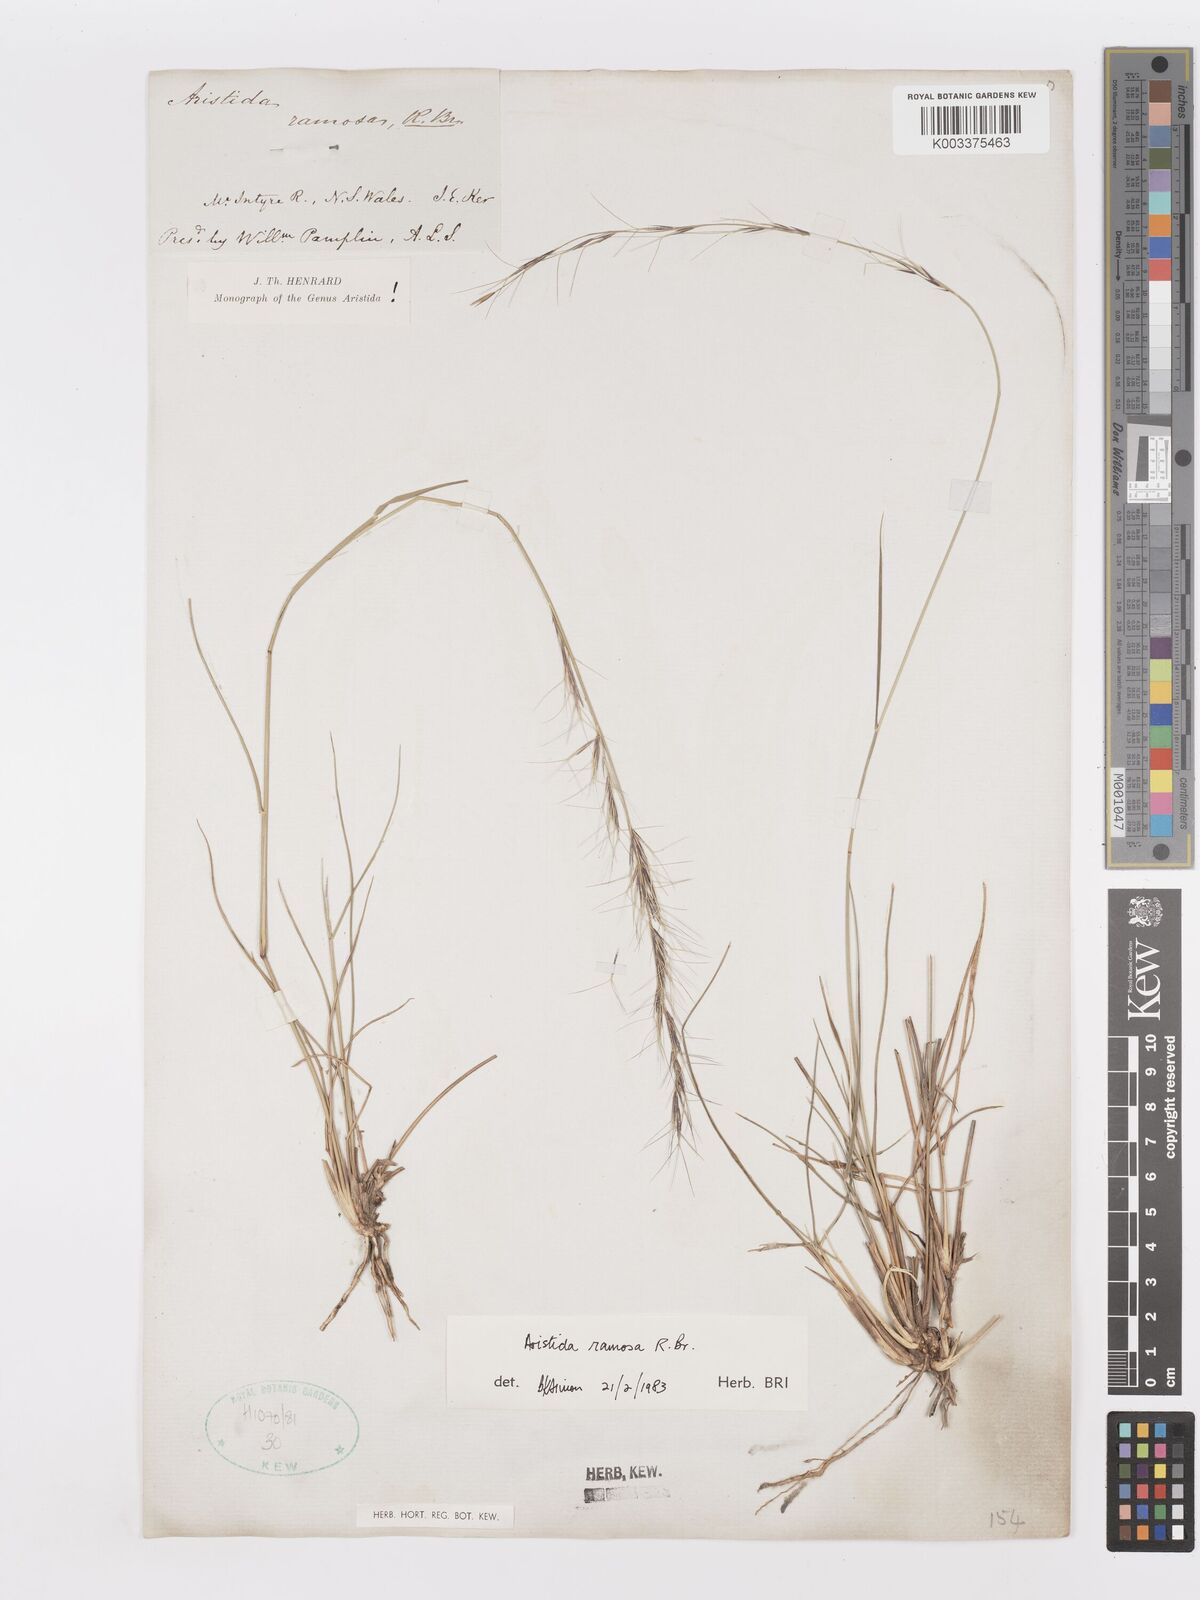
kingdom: Plantae
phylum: Tracheophyta
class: Liliopsida
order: Poales
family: Poaceae
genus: Aristida
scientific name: Aristida ramosa
